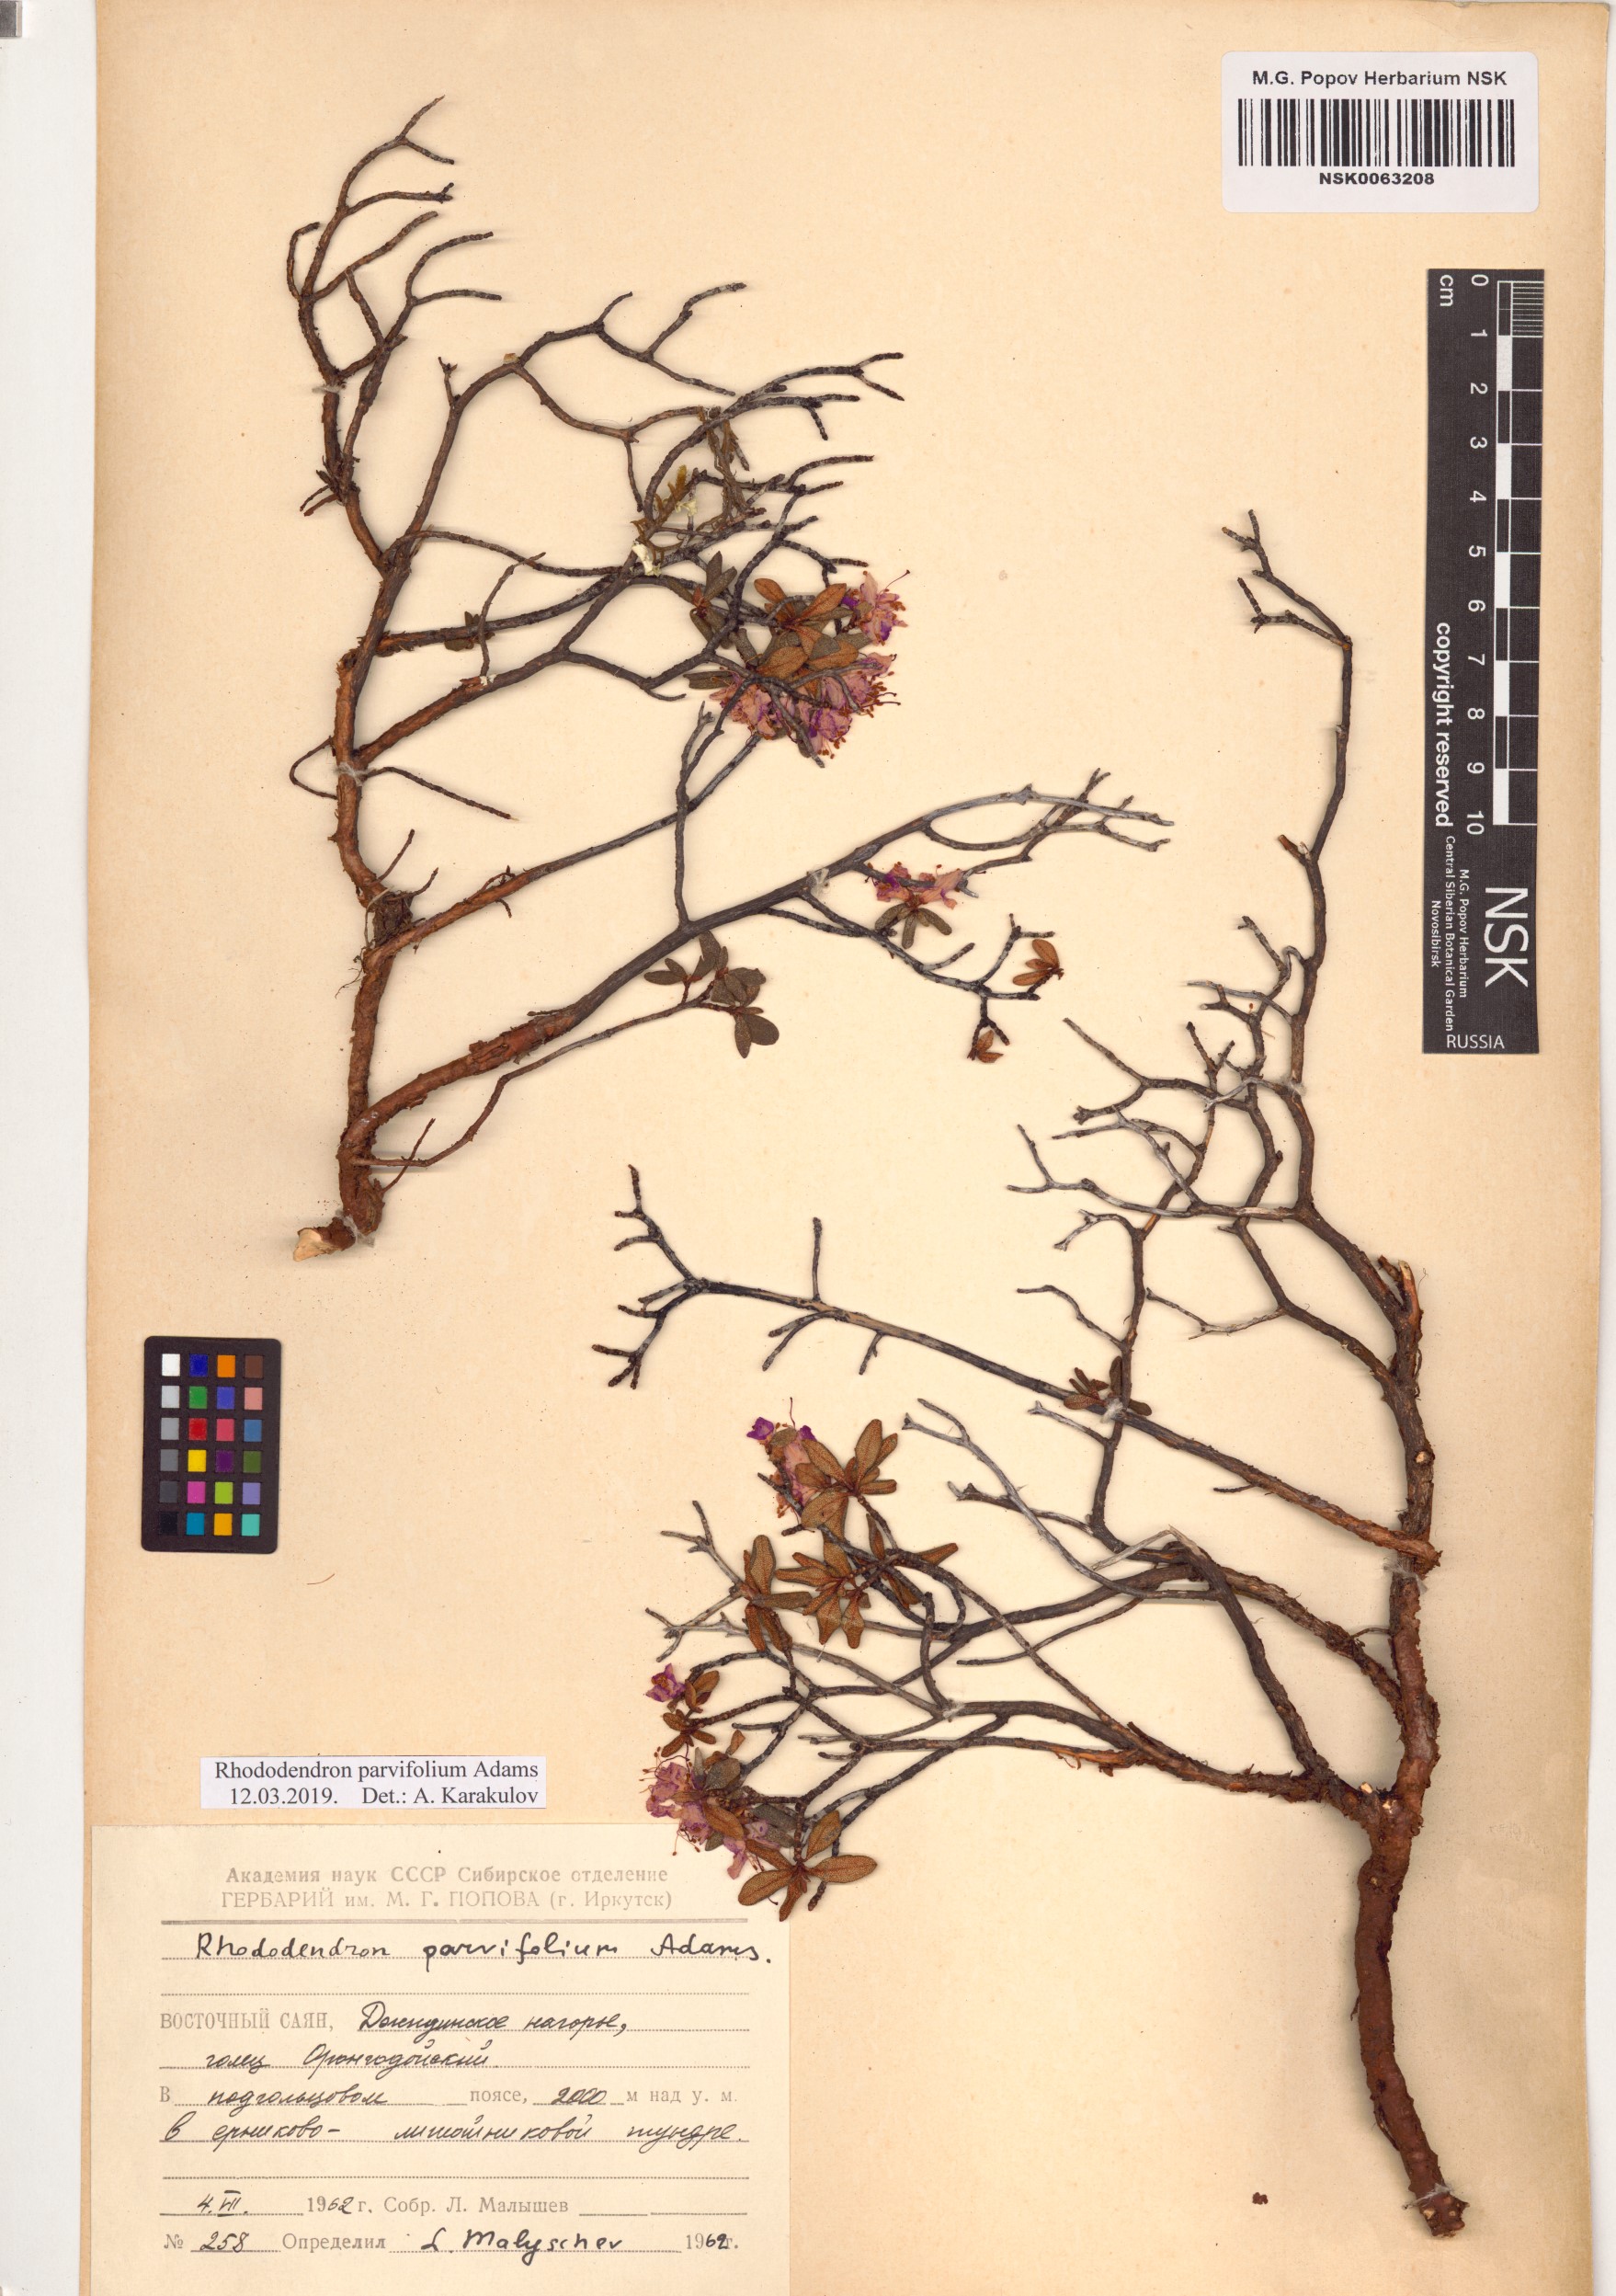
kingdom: Plantae
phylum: Tracheophyta
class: Magnoliopsida
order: Ericales
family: Ericaceae
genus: Rhododendron
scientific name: Rhododendron parvifolium
